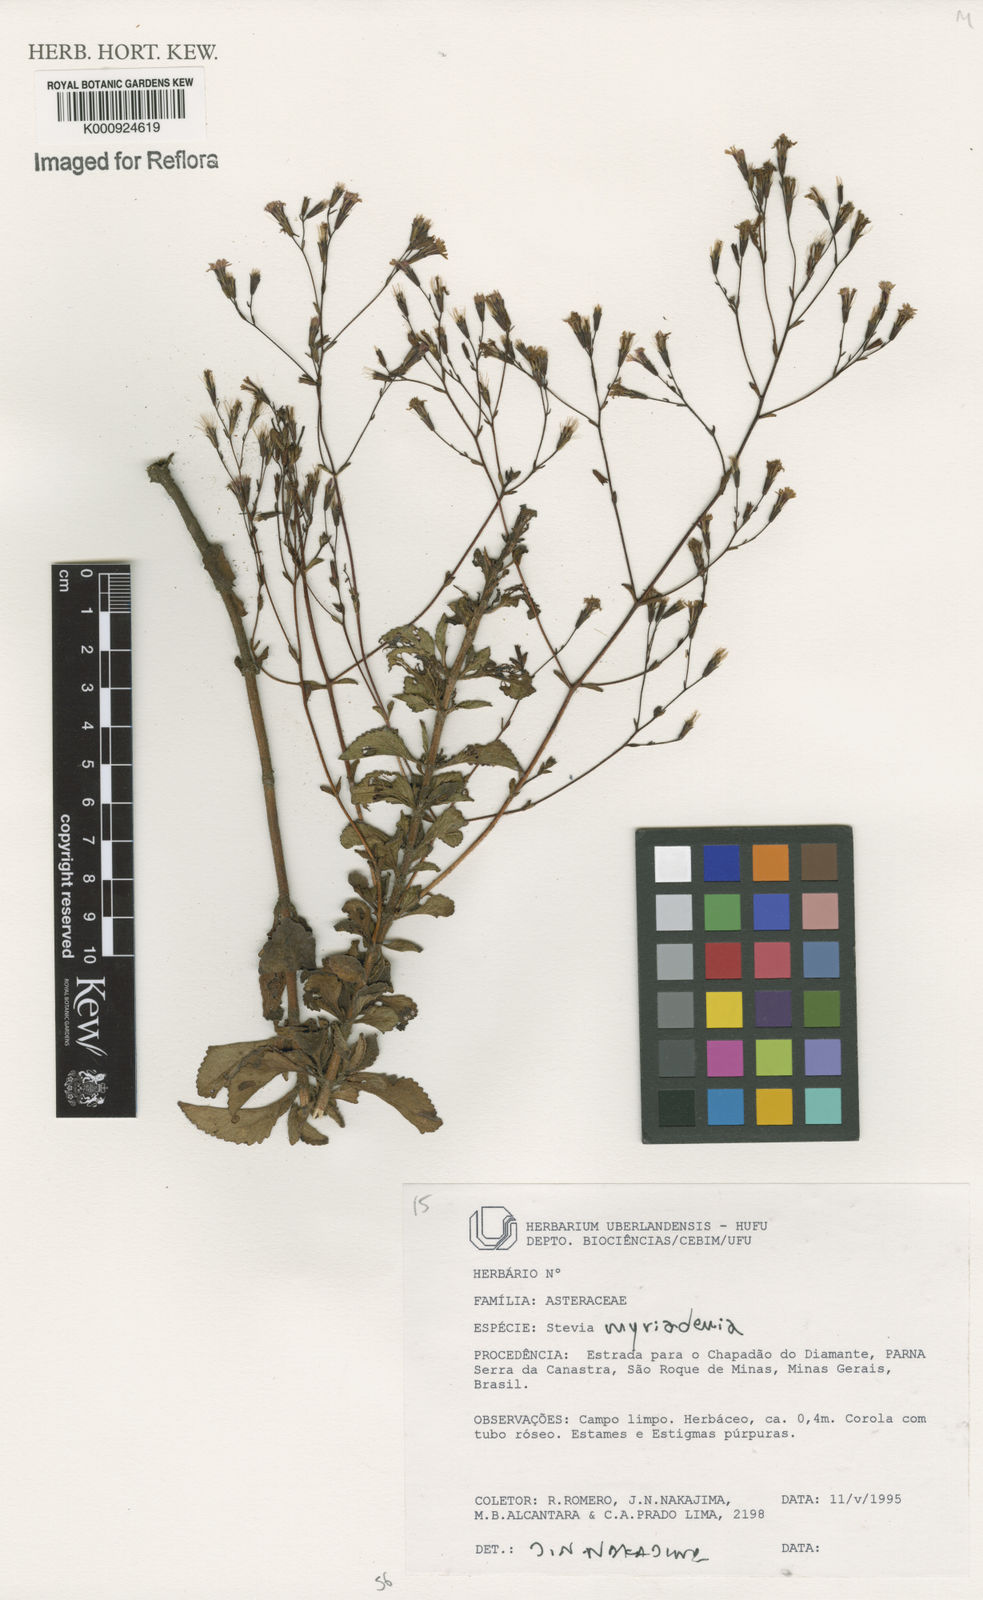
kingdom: Plantae
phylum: Tracheophyta
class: Magnoliopsida
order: Asterales
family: Asteraceae
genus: Stevia
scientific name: Stevia myriadenia
